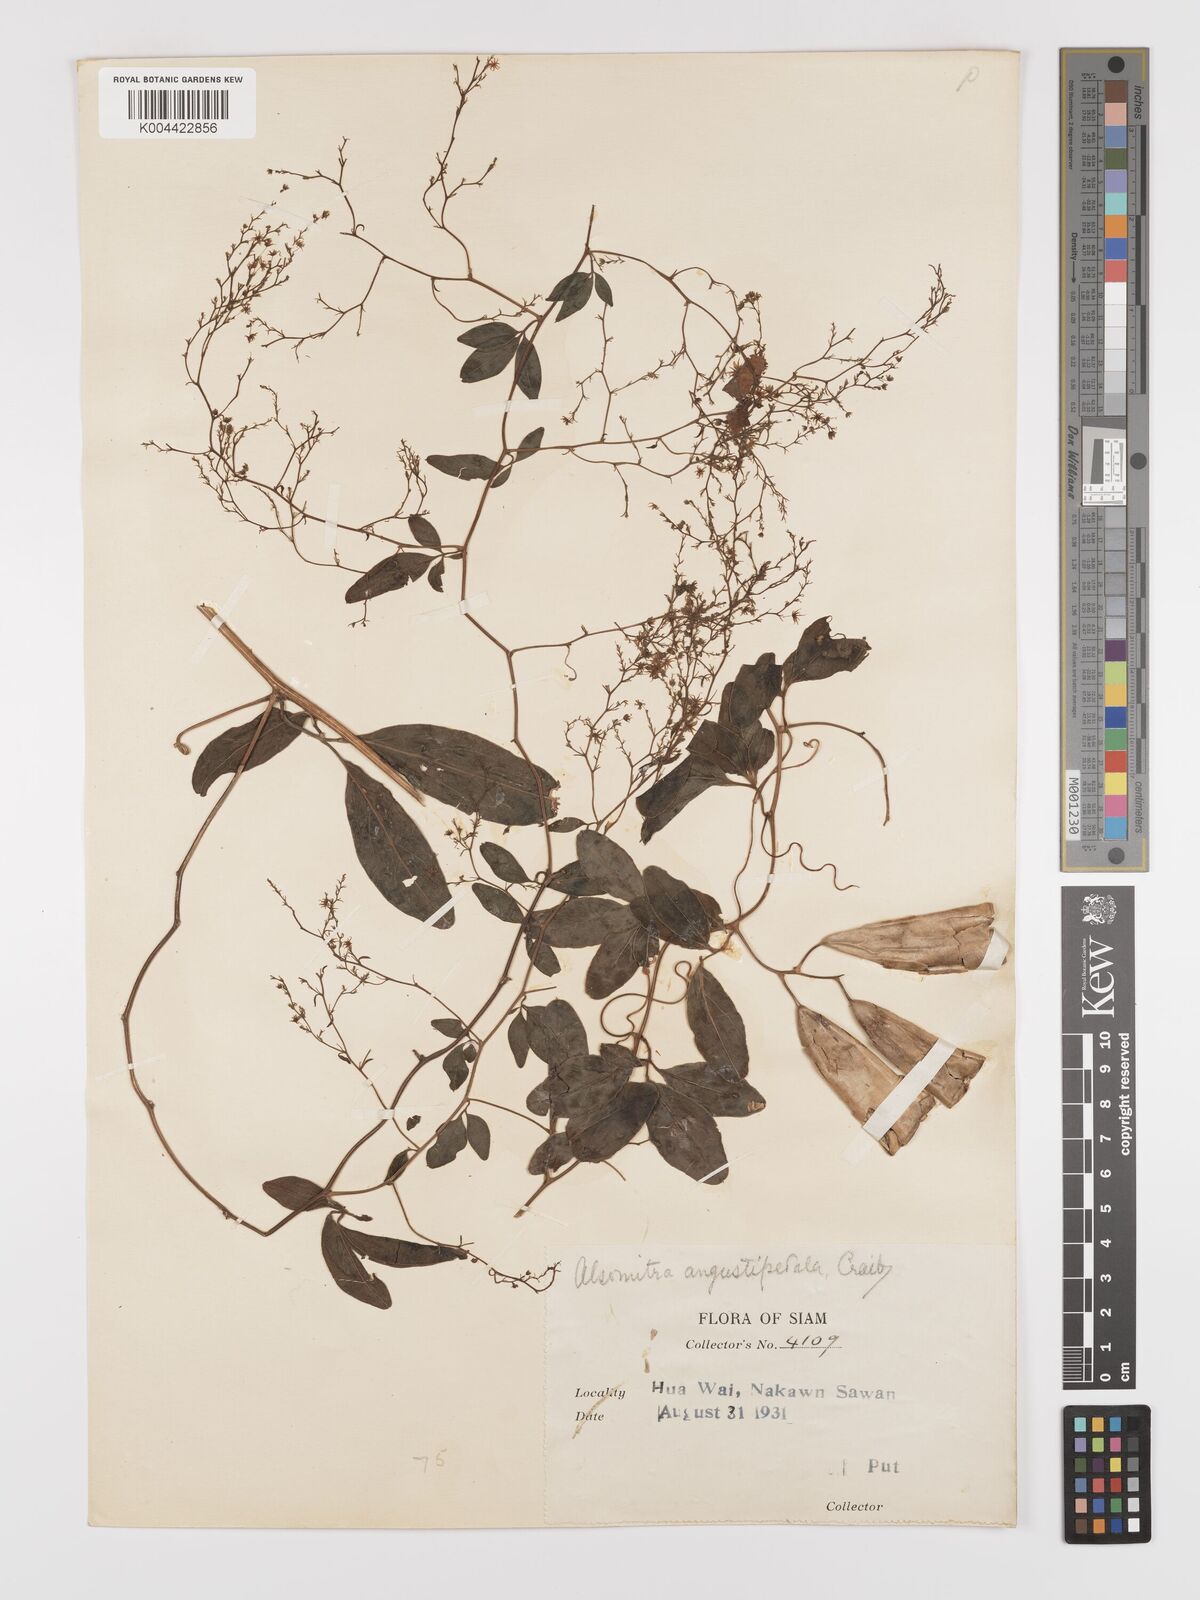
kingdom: Plantae
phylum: Tracheophyta
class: Magnoliopsida
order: Cucurbitales
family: Cucurbitaceae
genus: Neoalsomitra
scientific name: Neoalsomitra angustipetala
